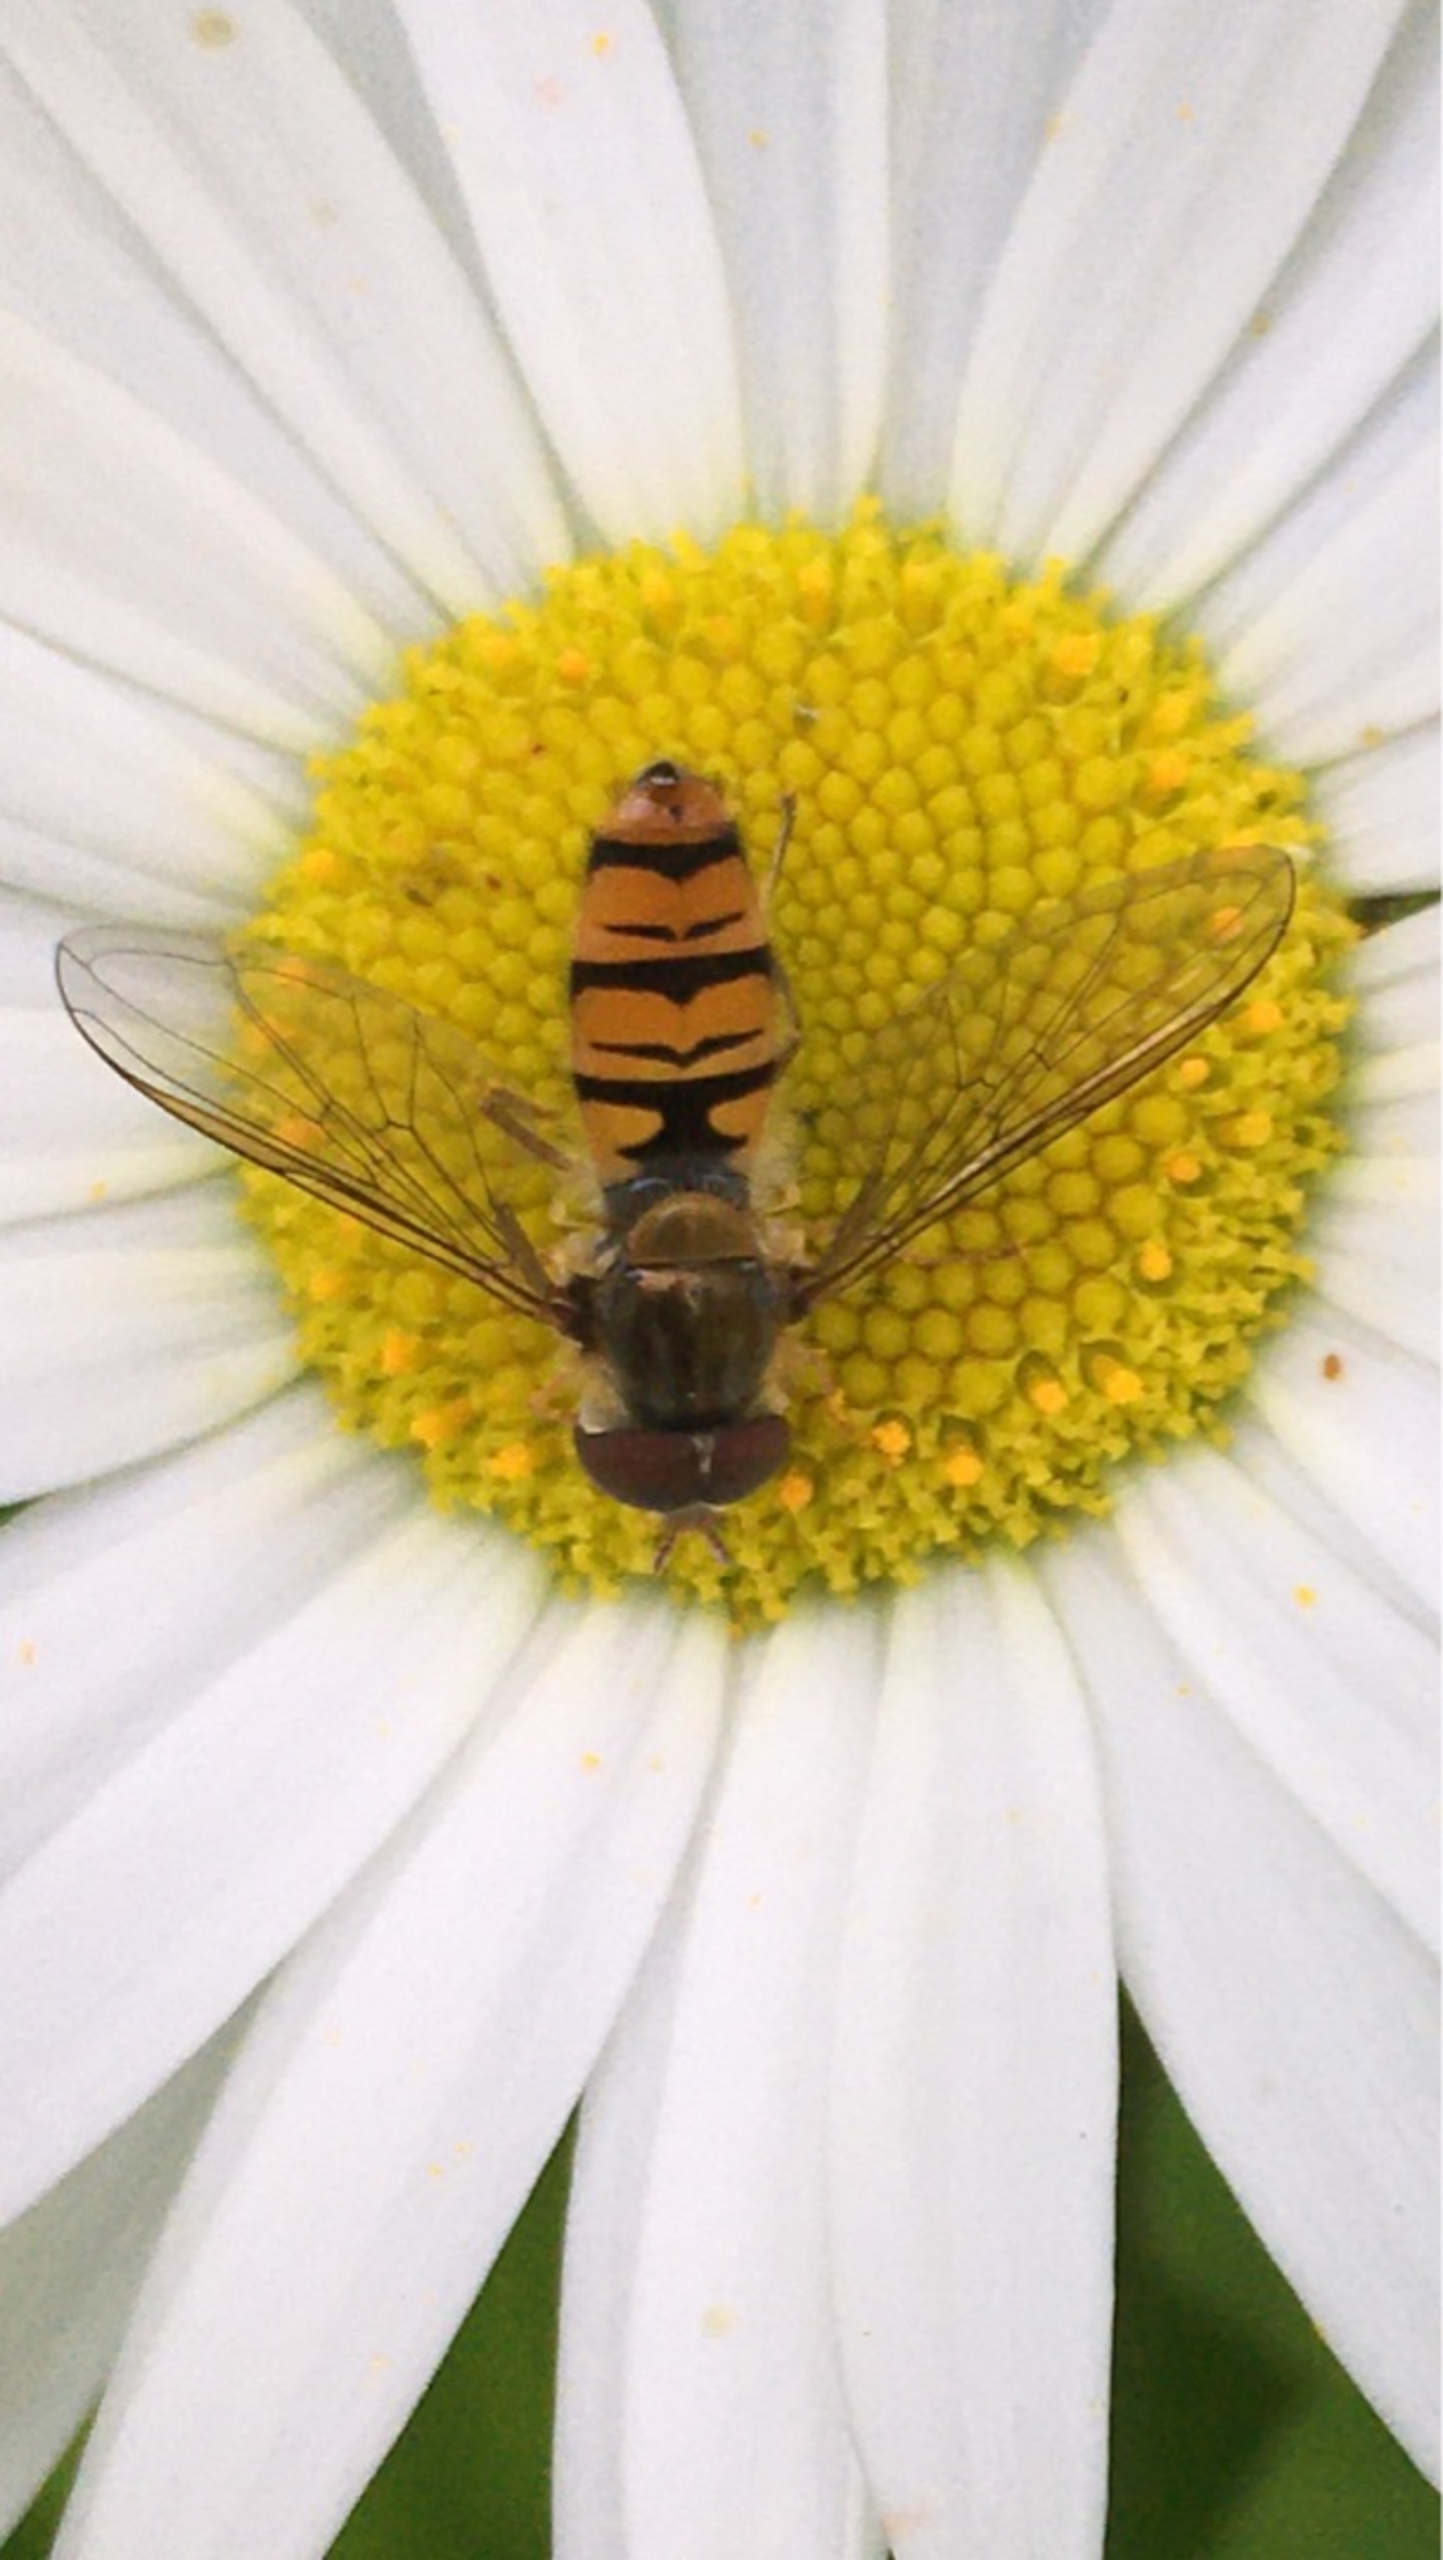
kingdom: Animalia
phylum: Arthropoda
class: Insecta
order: Diptera
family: Syrphidae
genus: Episyrphus
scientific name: Episyrphus balteatus
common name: Dobbeltbåndet svirreflue
